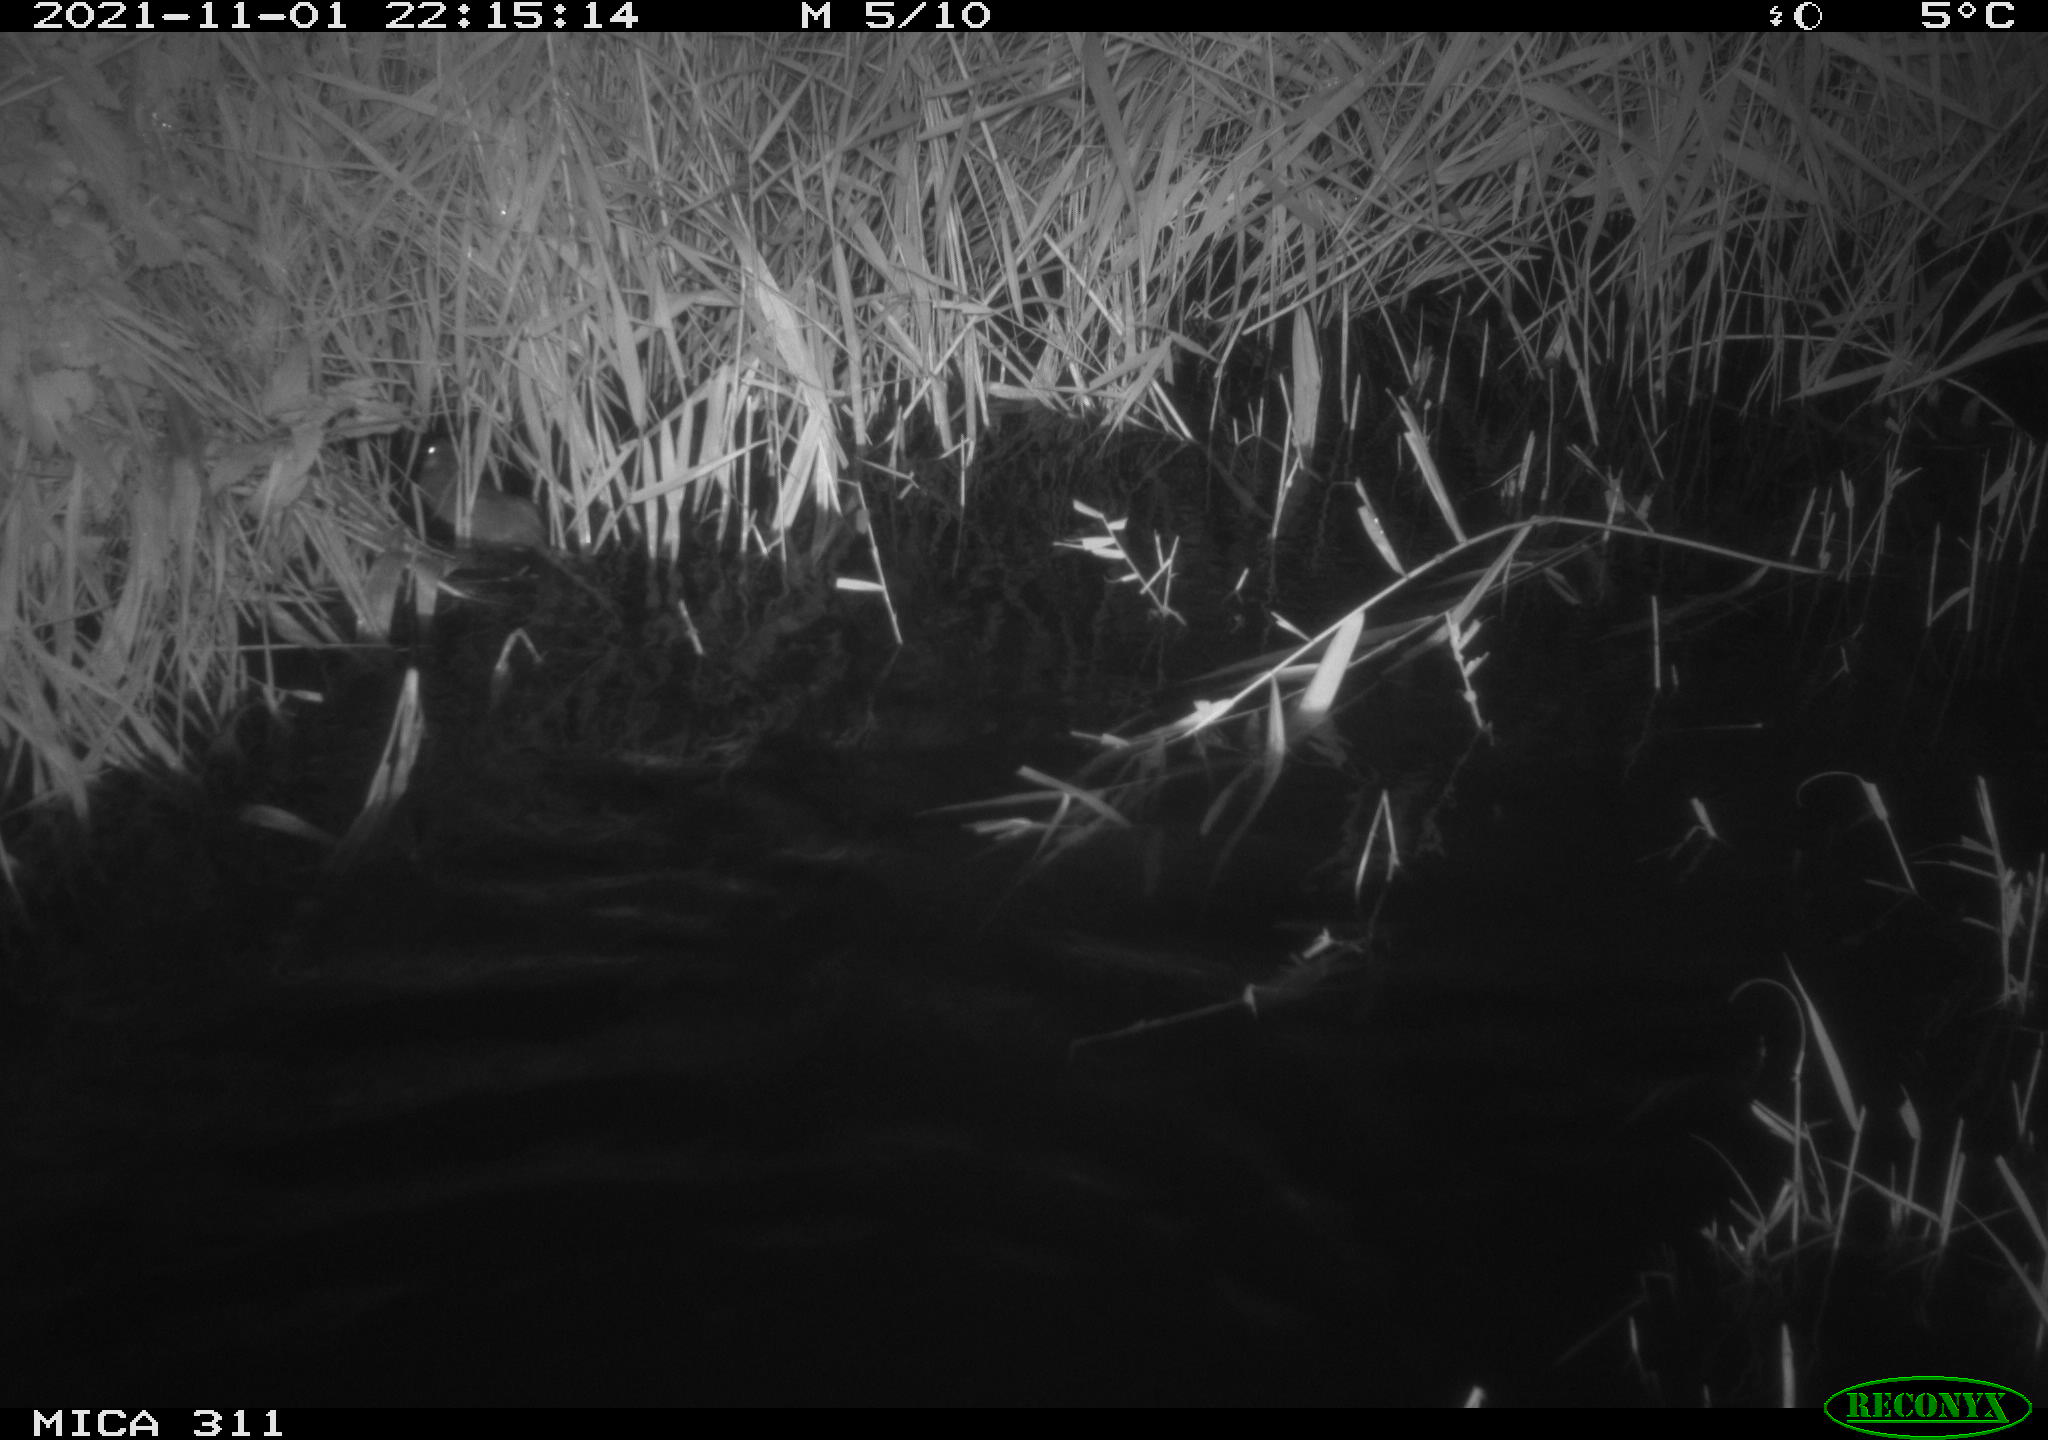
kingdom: Animalia
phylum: Chordata
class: Mammalia
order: Rodentia
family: Muridae
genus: Rattus
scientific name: Rattus norvegicus
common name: Brown rat
